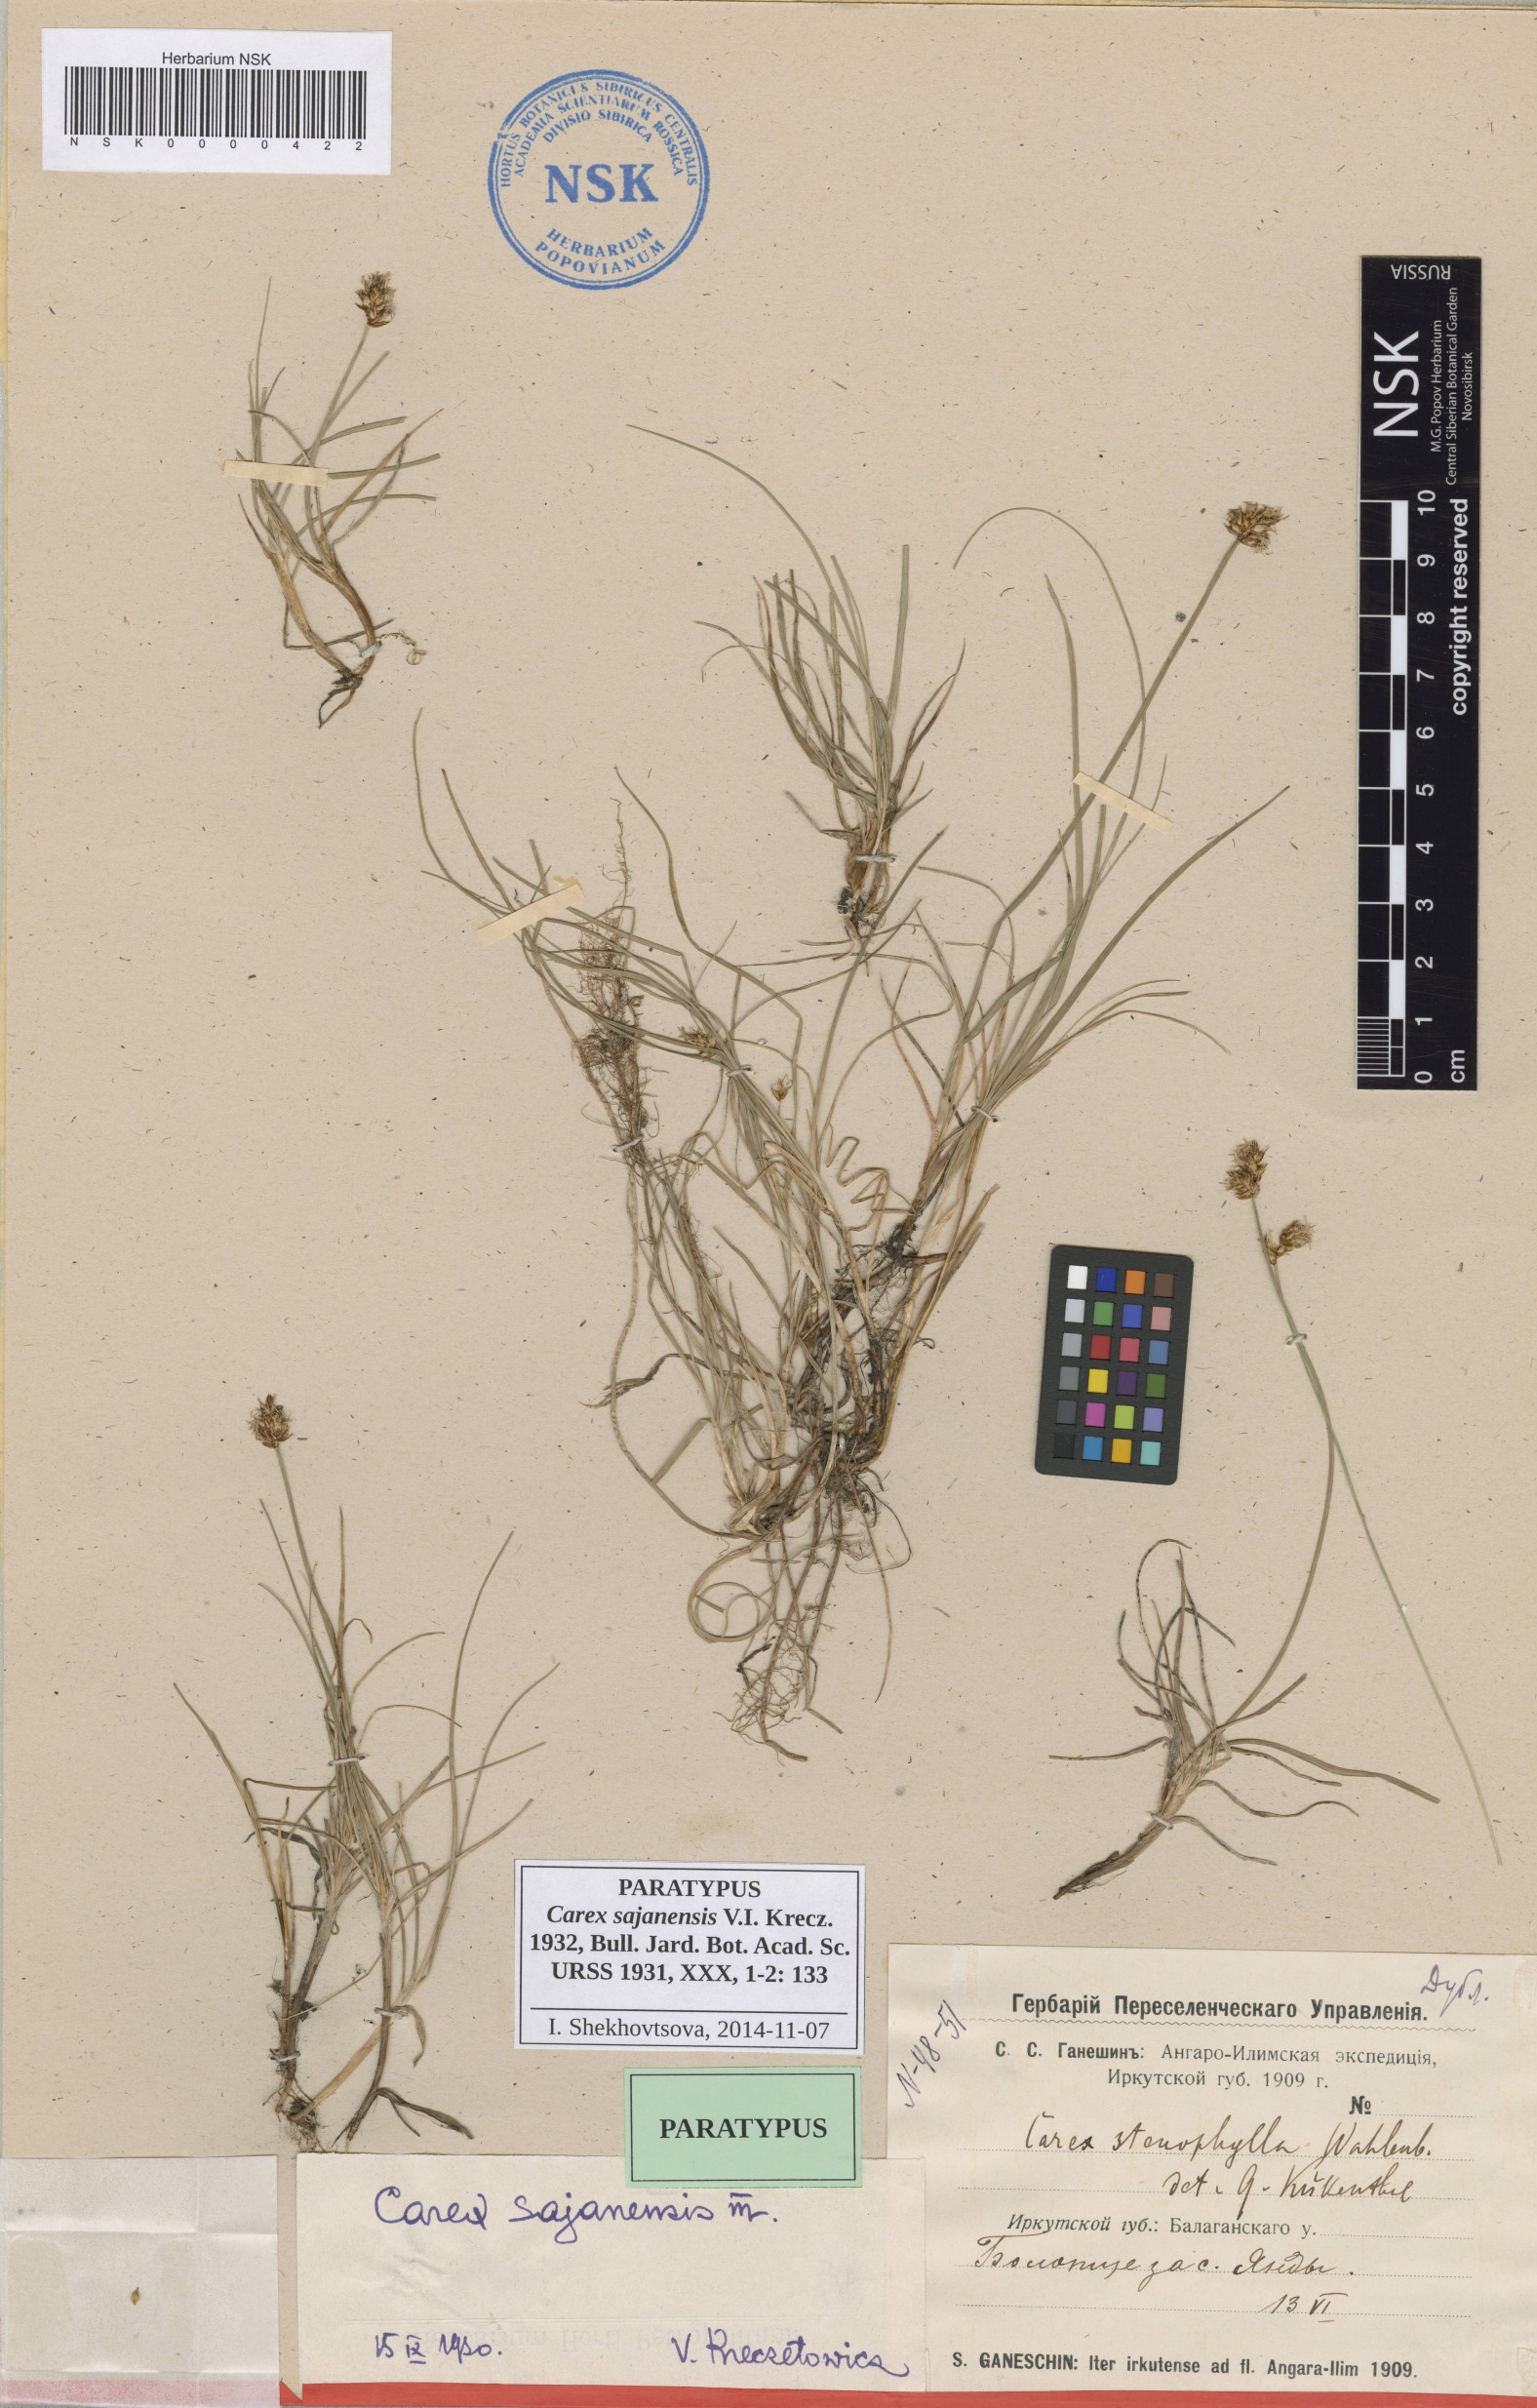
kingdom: Plantae
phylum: Tracheophyta
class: Liliopsida
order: Poales
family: Cyperaceae
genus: Carex
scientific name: Carex sajanensis
